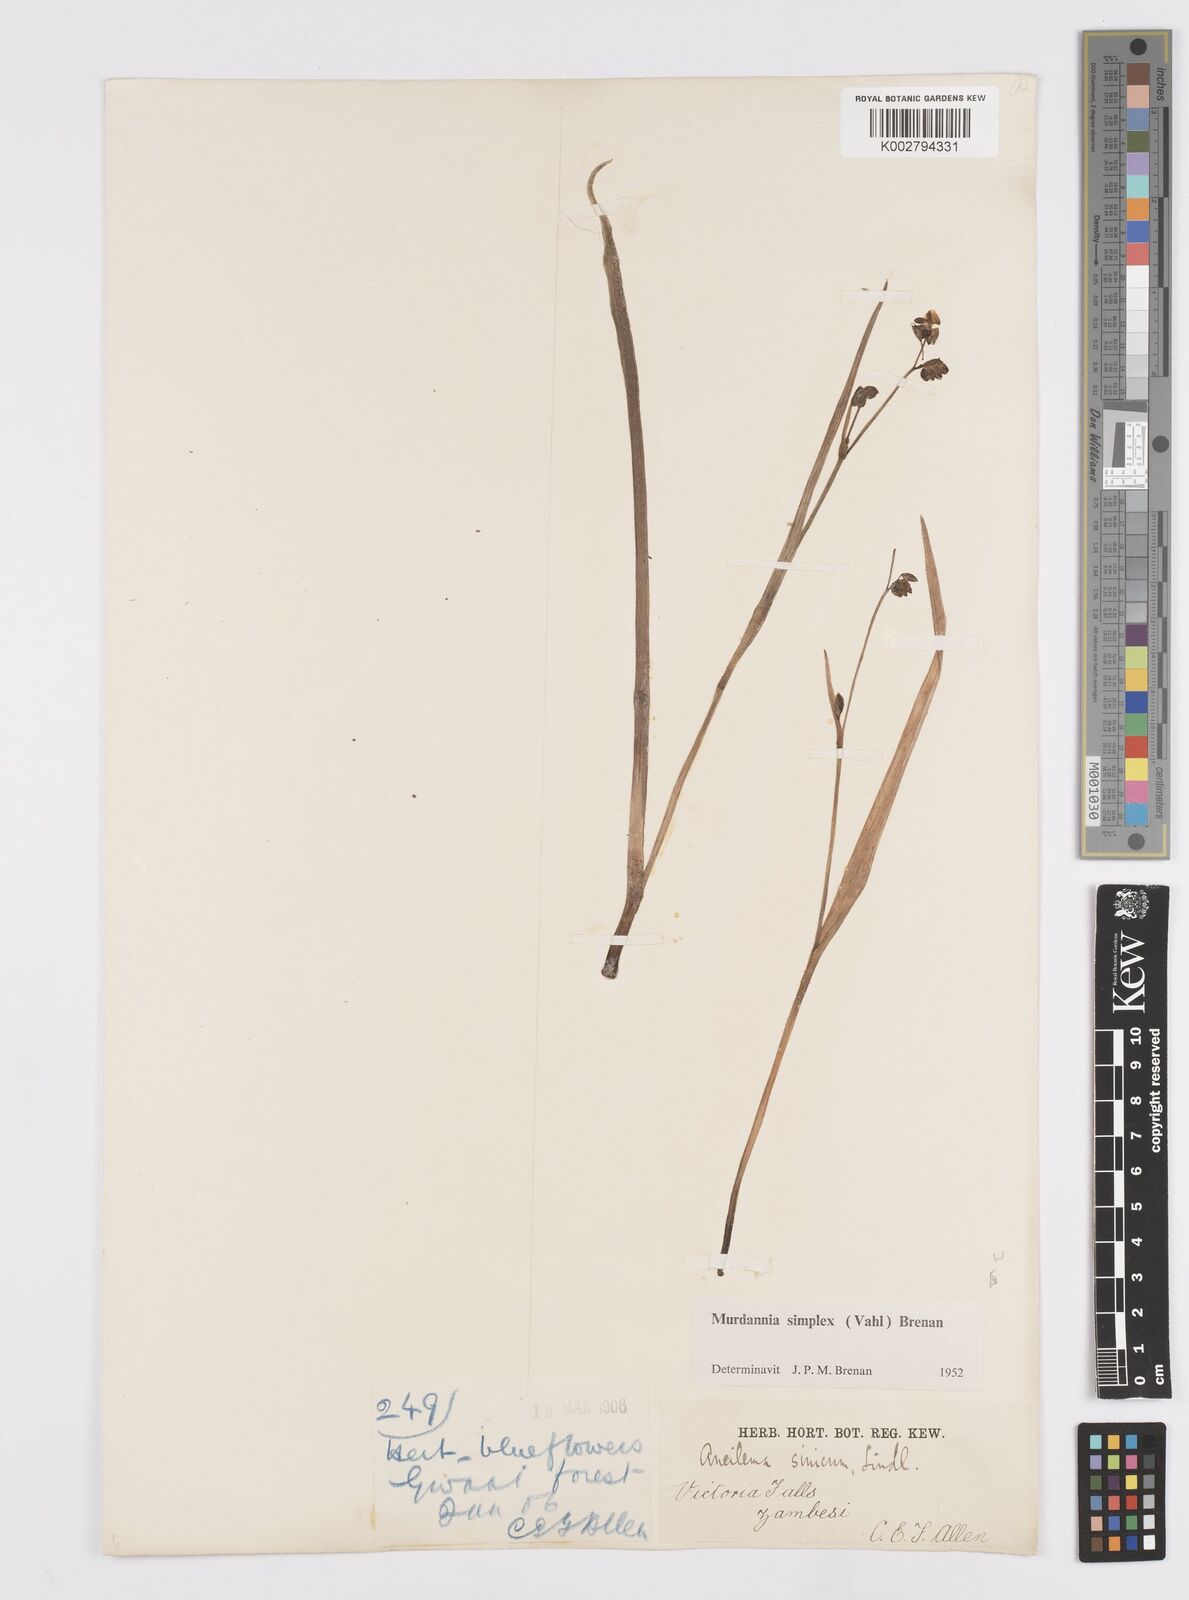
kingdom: Plantae
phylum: Tracheophyta
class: Liliopsida
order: Commelinales
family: Commelinaceae
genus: Murdannia
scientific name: Murdannia simplex
